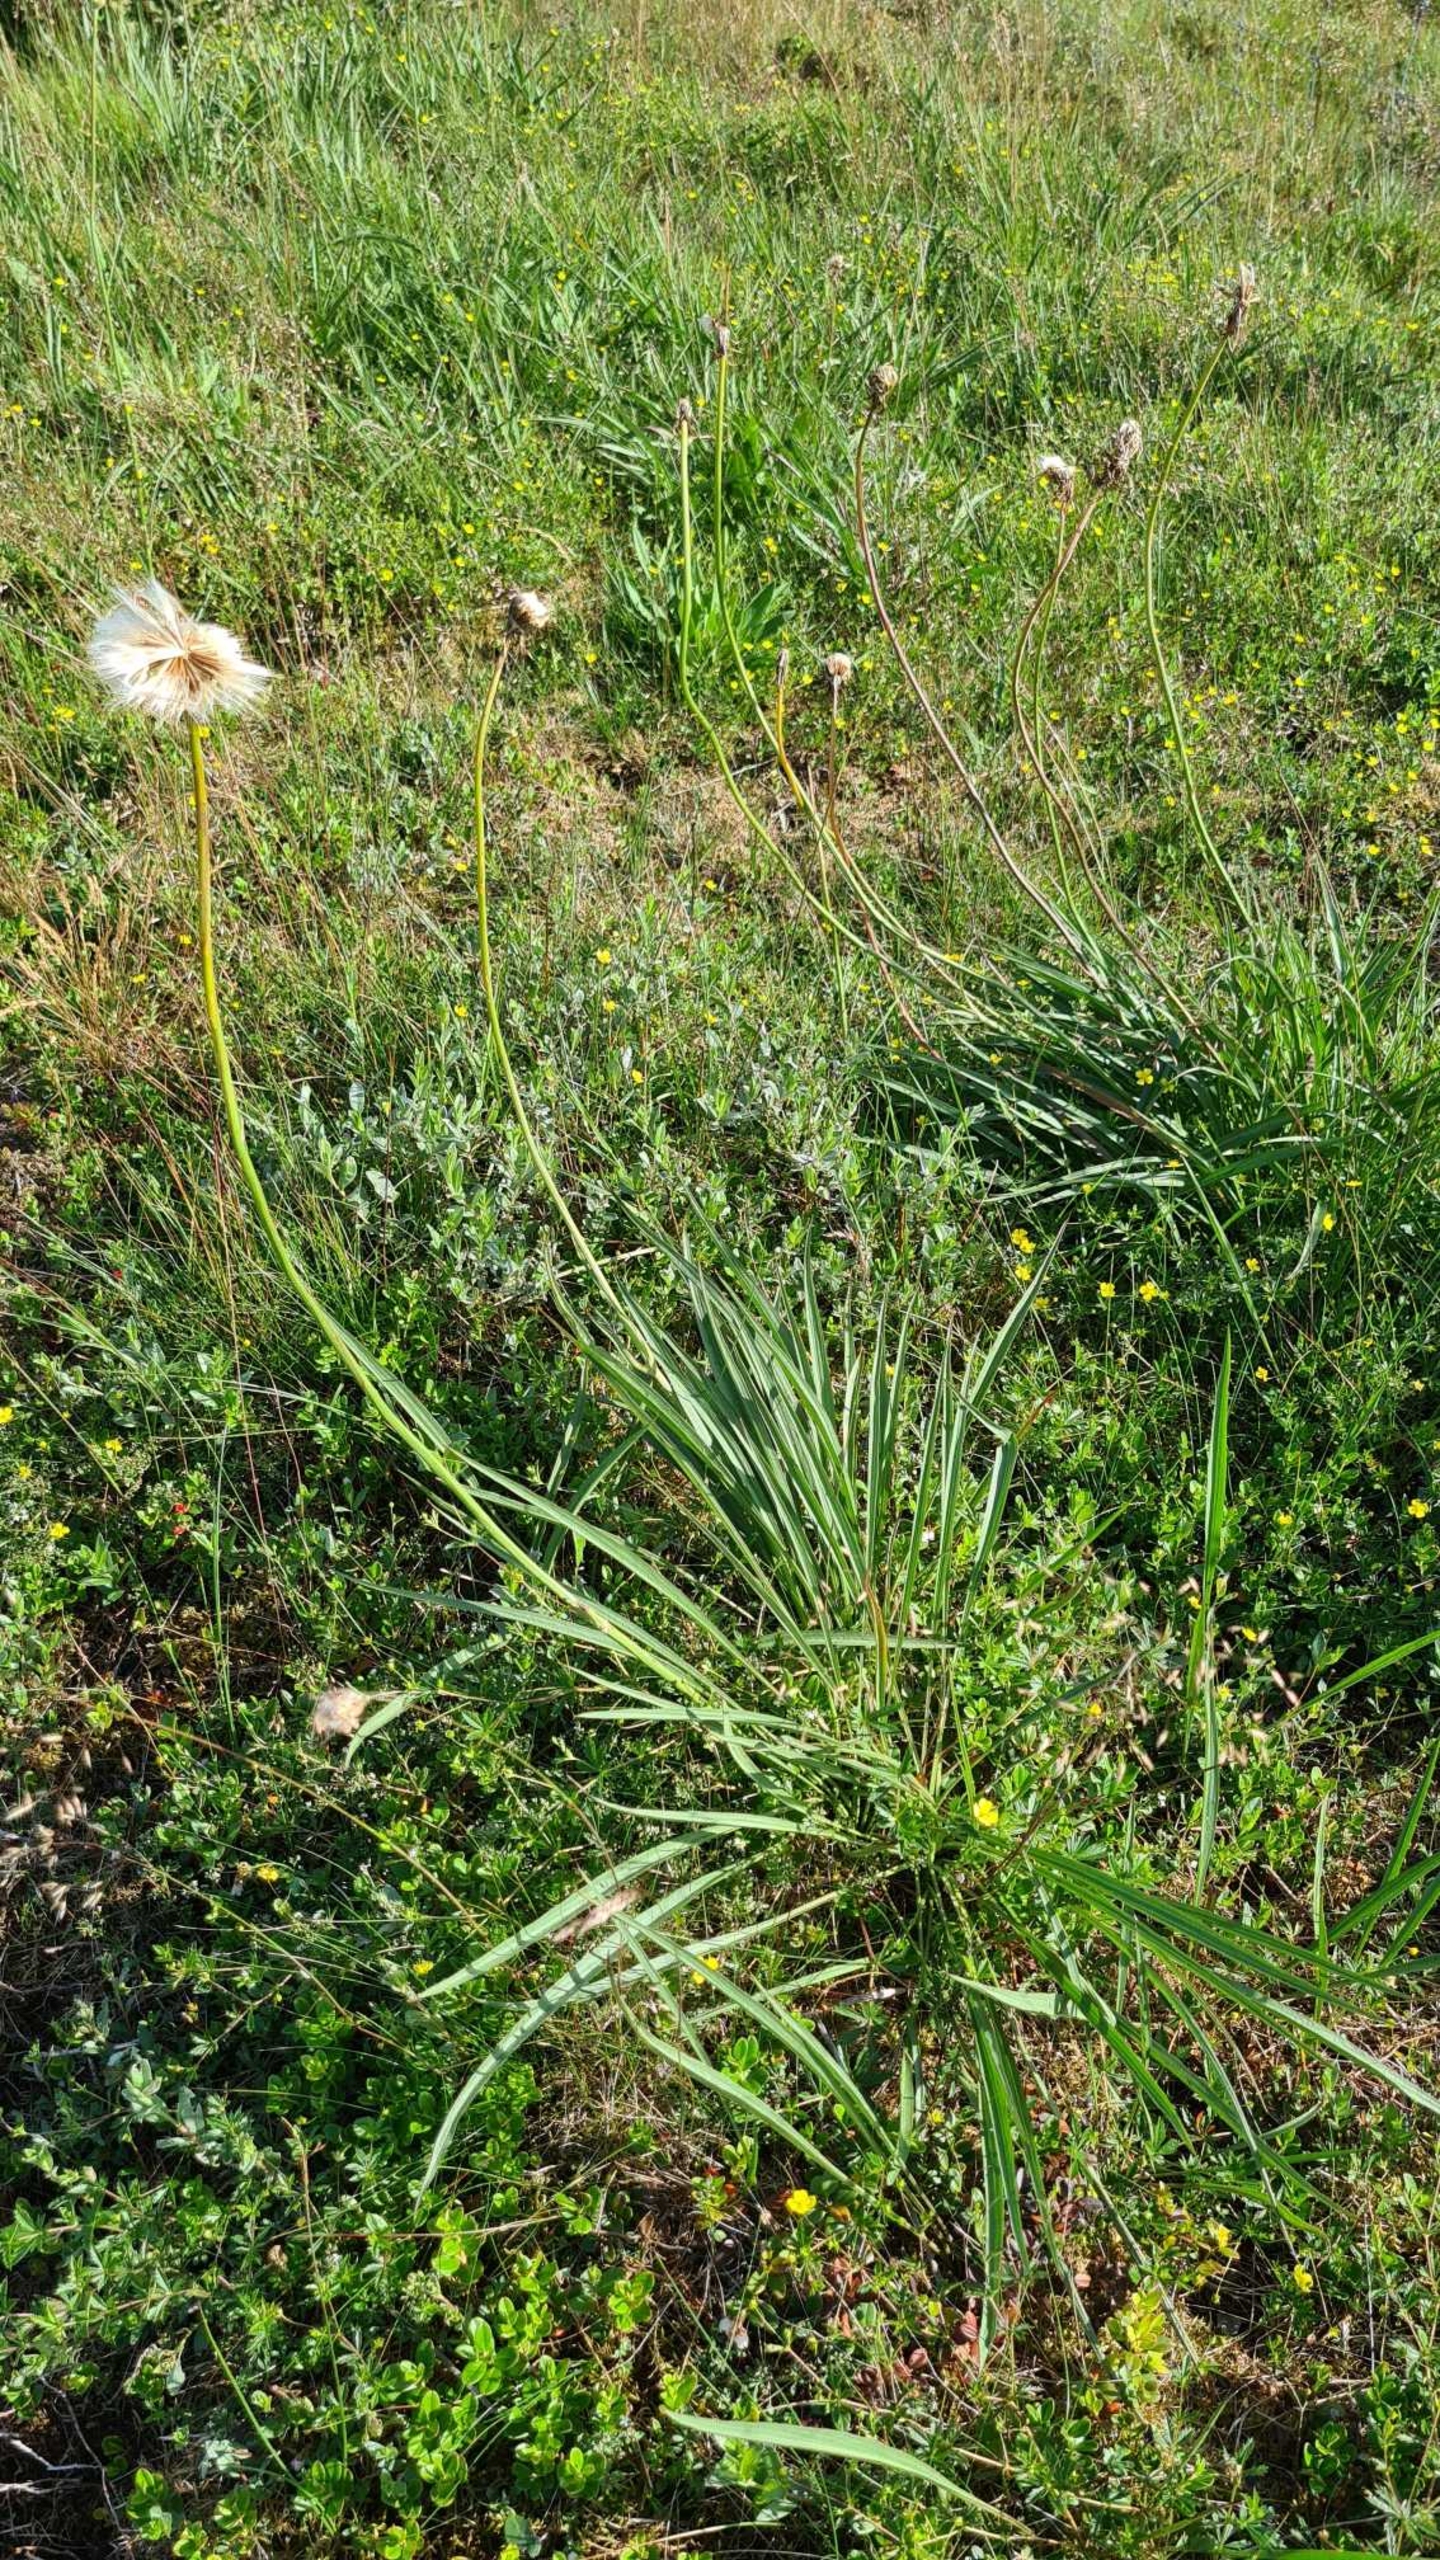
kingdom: Plantae
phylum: Tracheophyta
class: Magnoliopsida
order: Asterales
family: Asteraceae
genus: Scorzonera
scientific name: Scorzonera humilis
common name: Lav skorsoner
